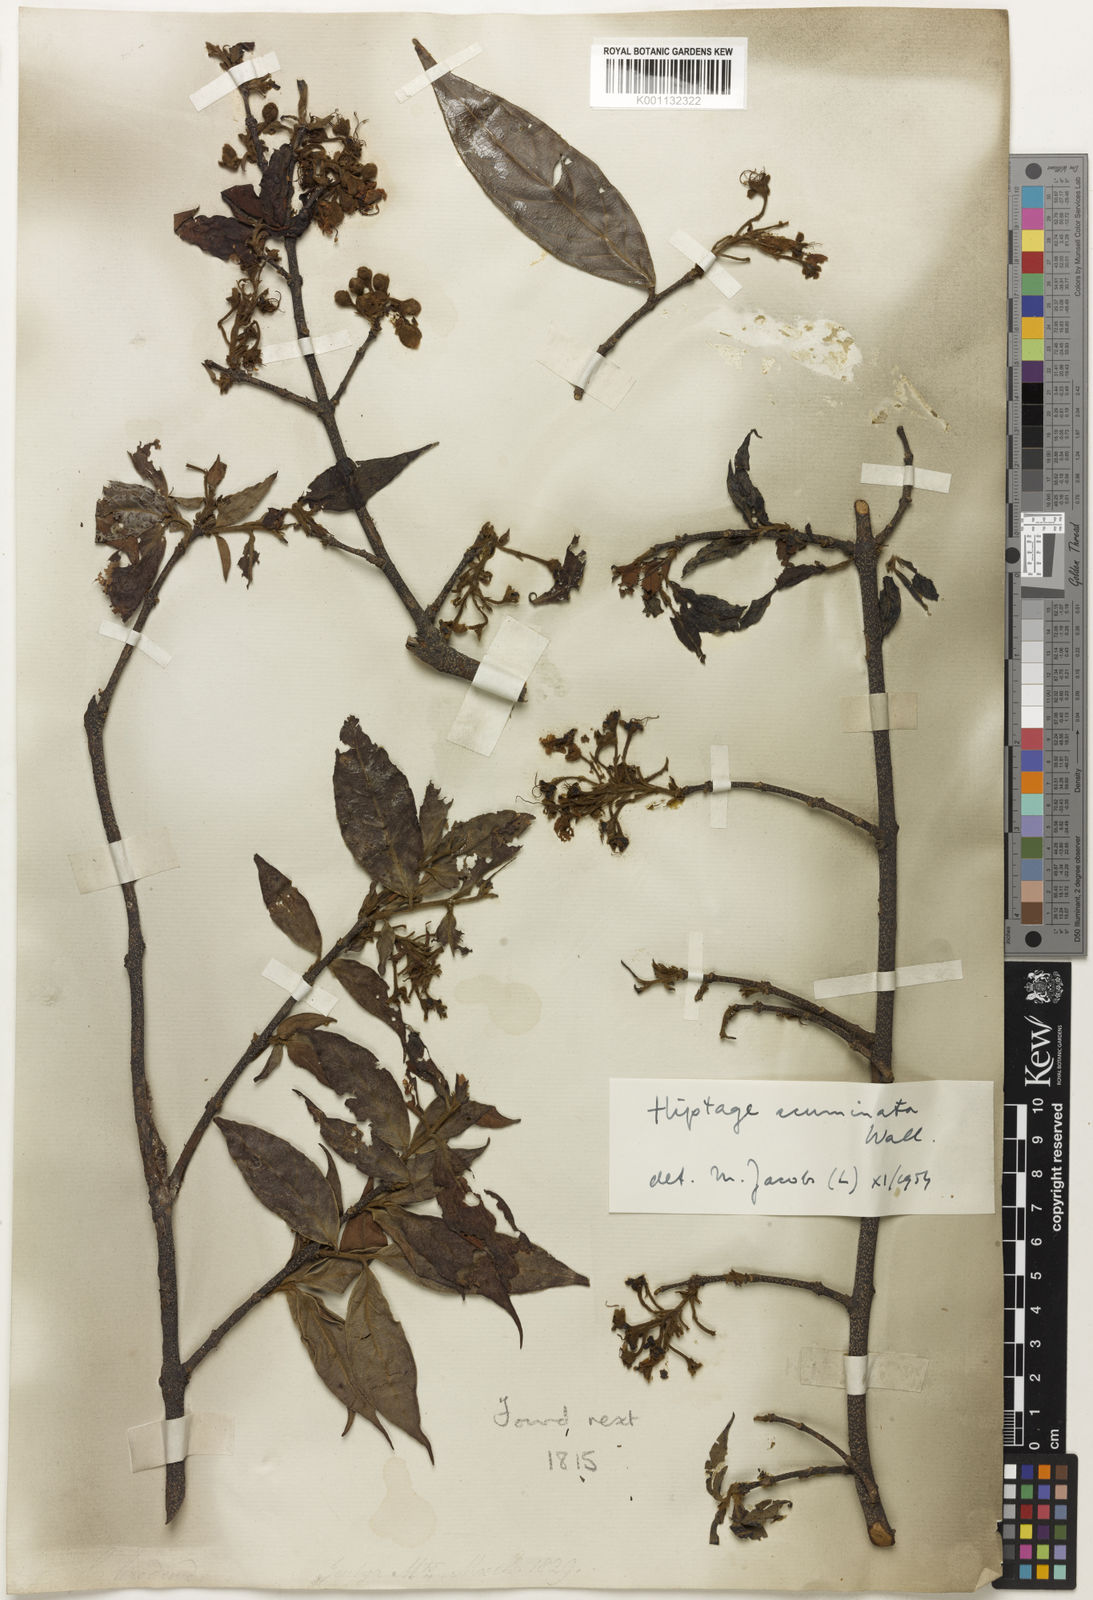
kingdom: Plantae
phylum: Tracheophyta
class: Magnoliopsida
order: Malpighiales
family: Malpighiaceae
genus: Hiptage
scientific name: Hiptage acuminata
